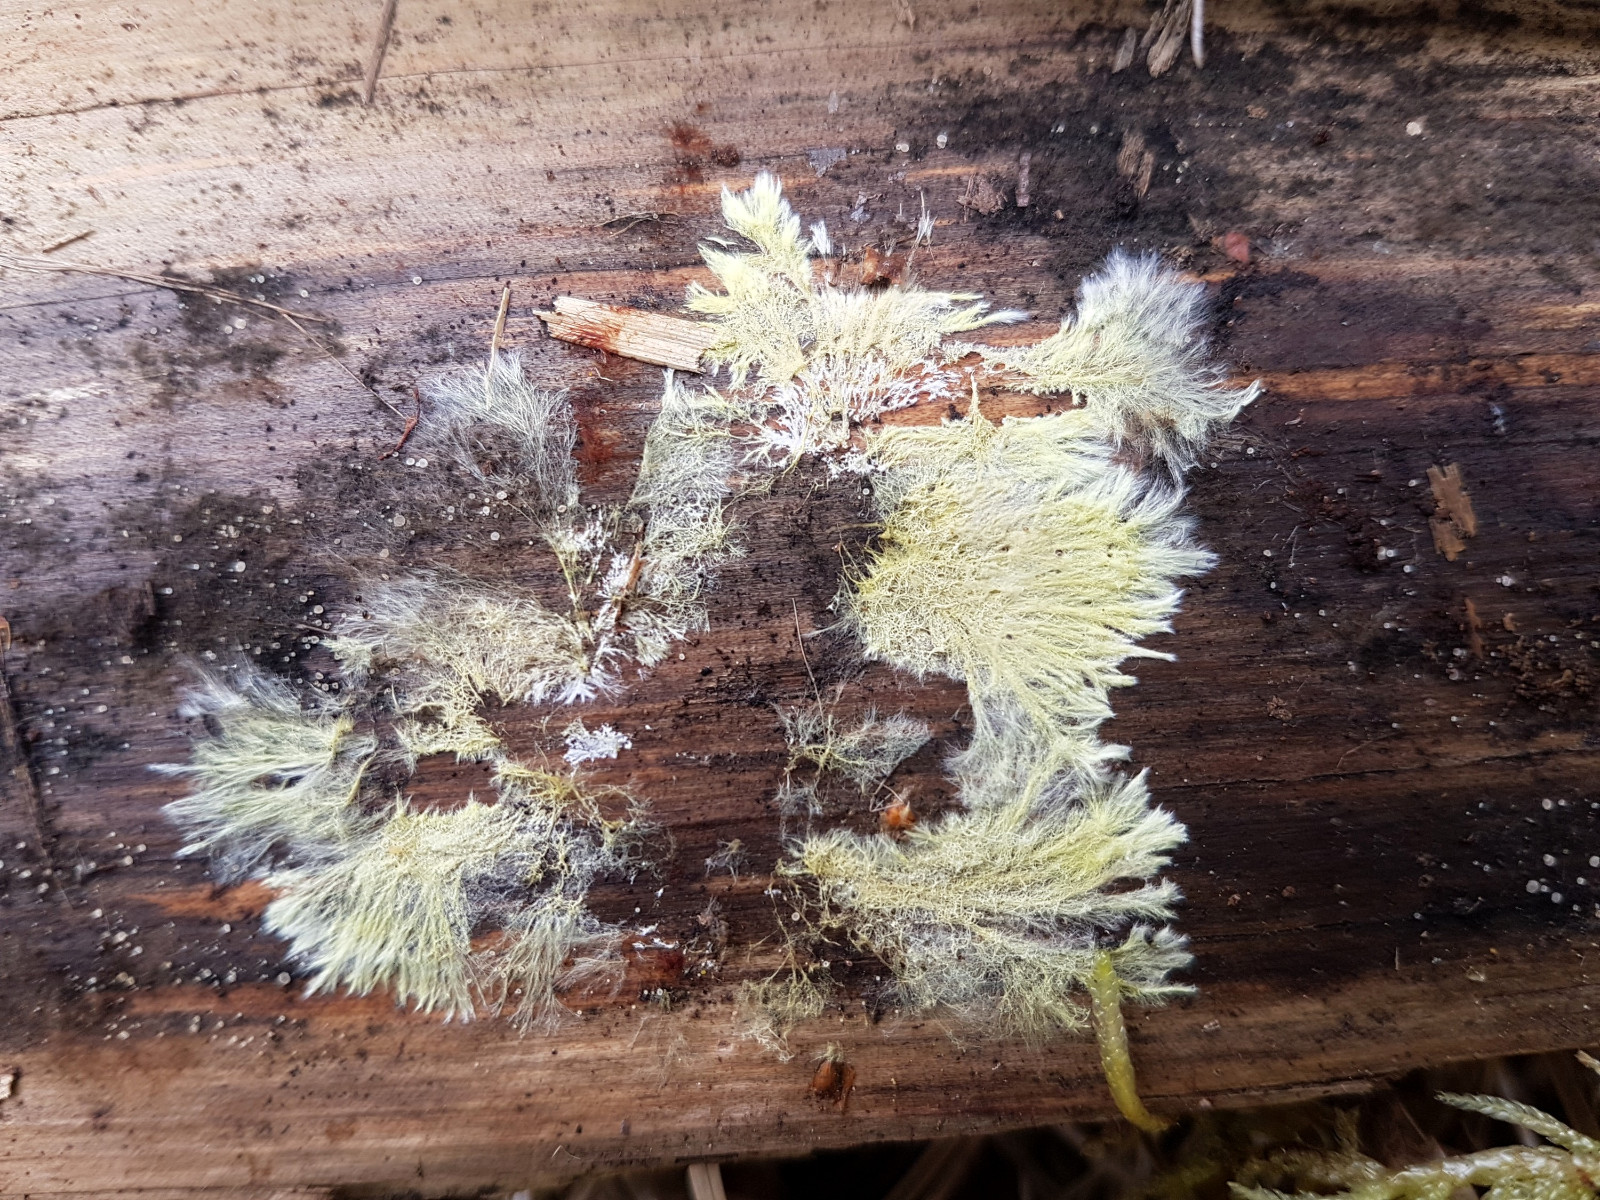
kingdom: Fungi
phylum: Basidiomycota
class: Agaricomycetes
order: Russulales
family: Xenasmataceae
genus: Xenasmatella
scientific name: Xenasmatella vaga
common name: svovl-strenghinde
